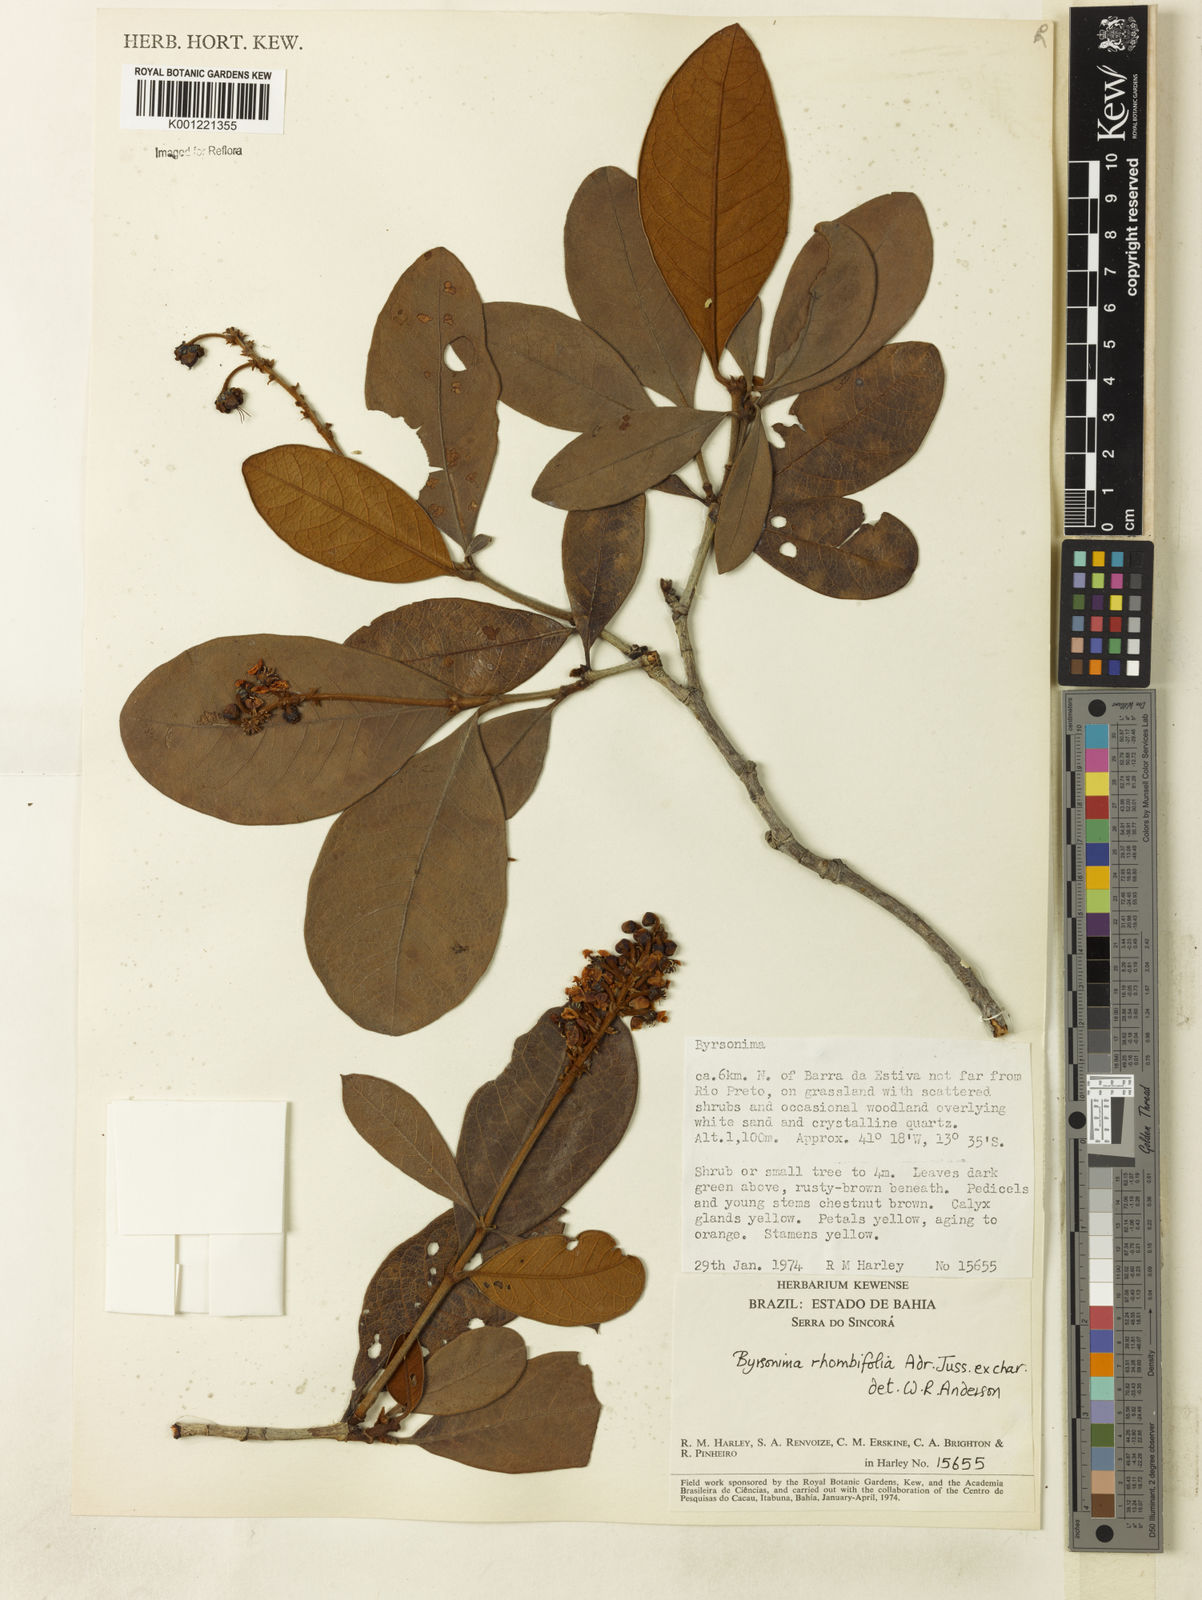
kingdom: Plantae
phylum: Tracheophyta
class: Magnoliopsida
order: Malpighiales
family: Malpighiaceae
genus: Byrsonima
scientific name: Byrsonima rhombifolia
